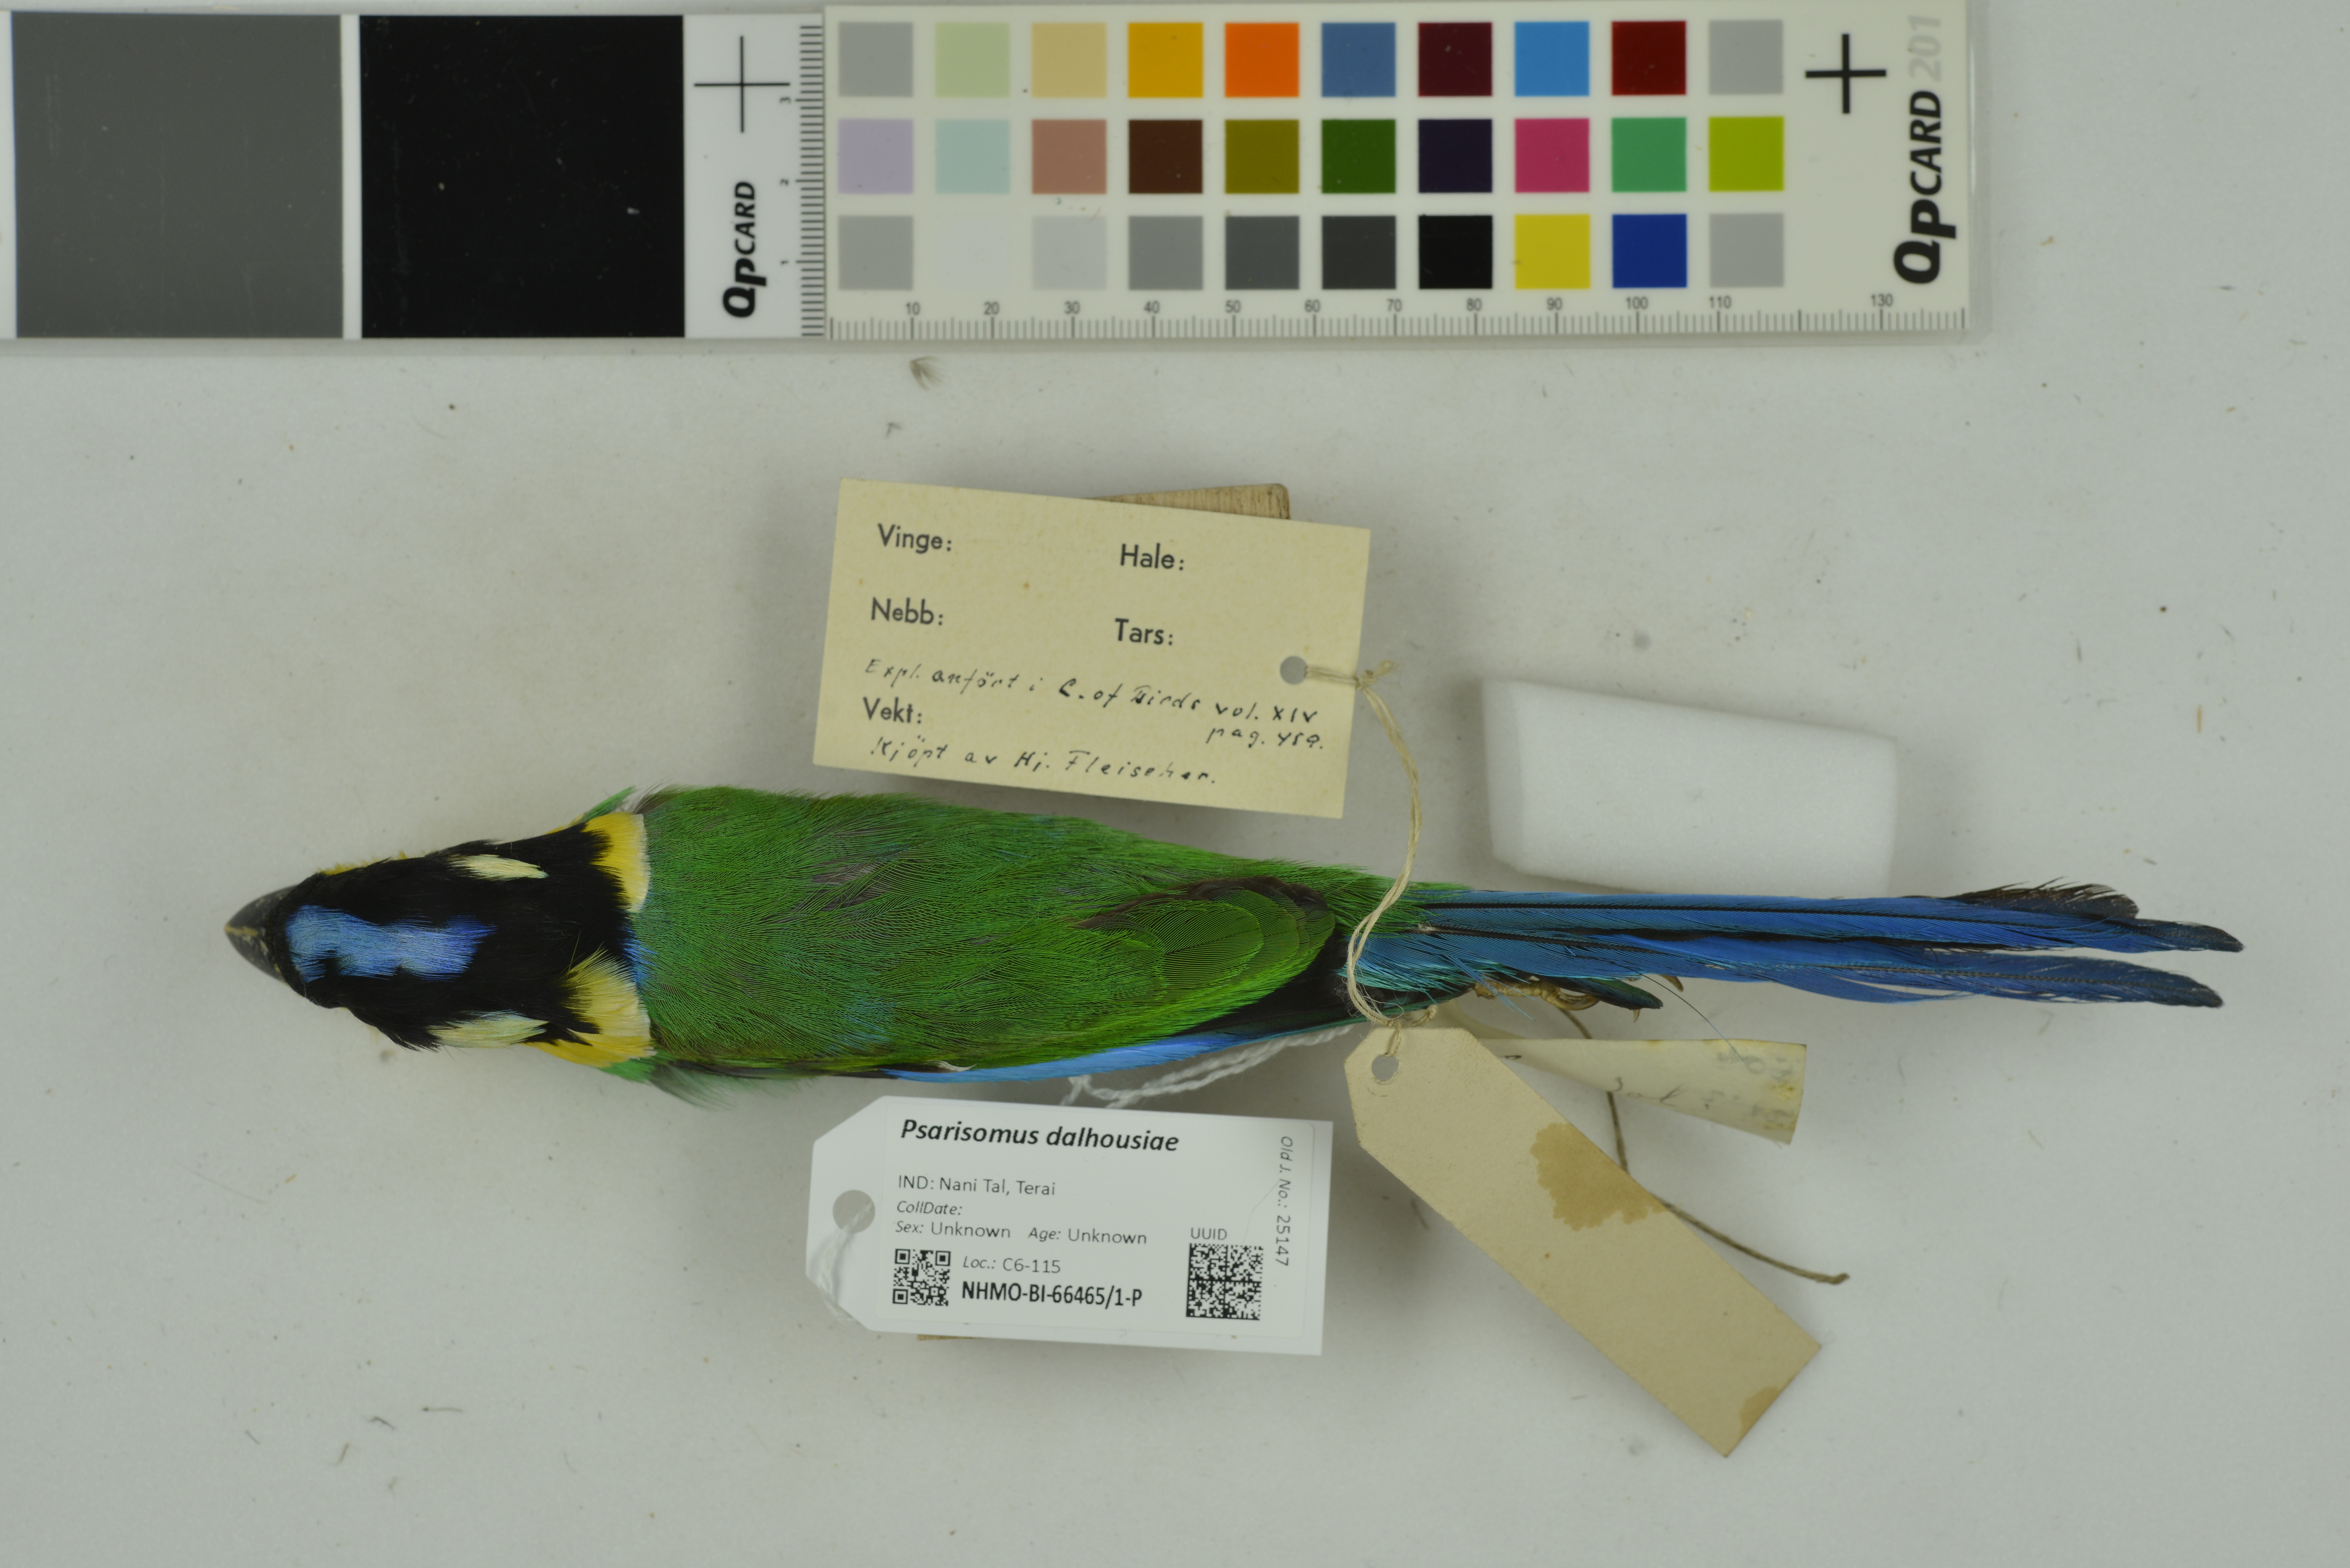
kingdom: Animalia
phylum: Chordata
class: Aves
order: Passeriformes
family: Eurylaimidae
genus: Psarisomus
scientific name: Psarisomus dalhousiae
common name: Long-tailed broadbill
